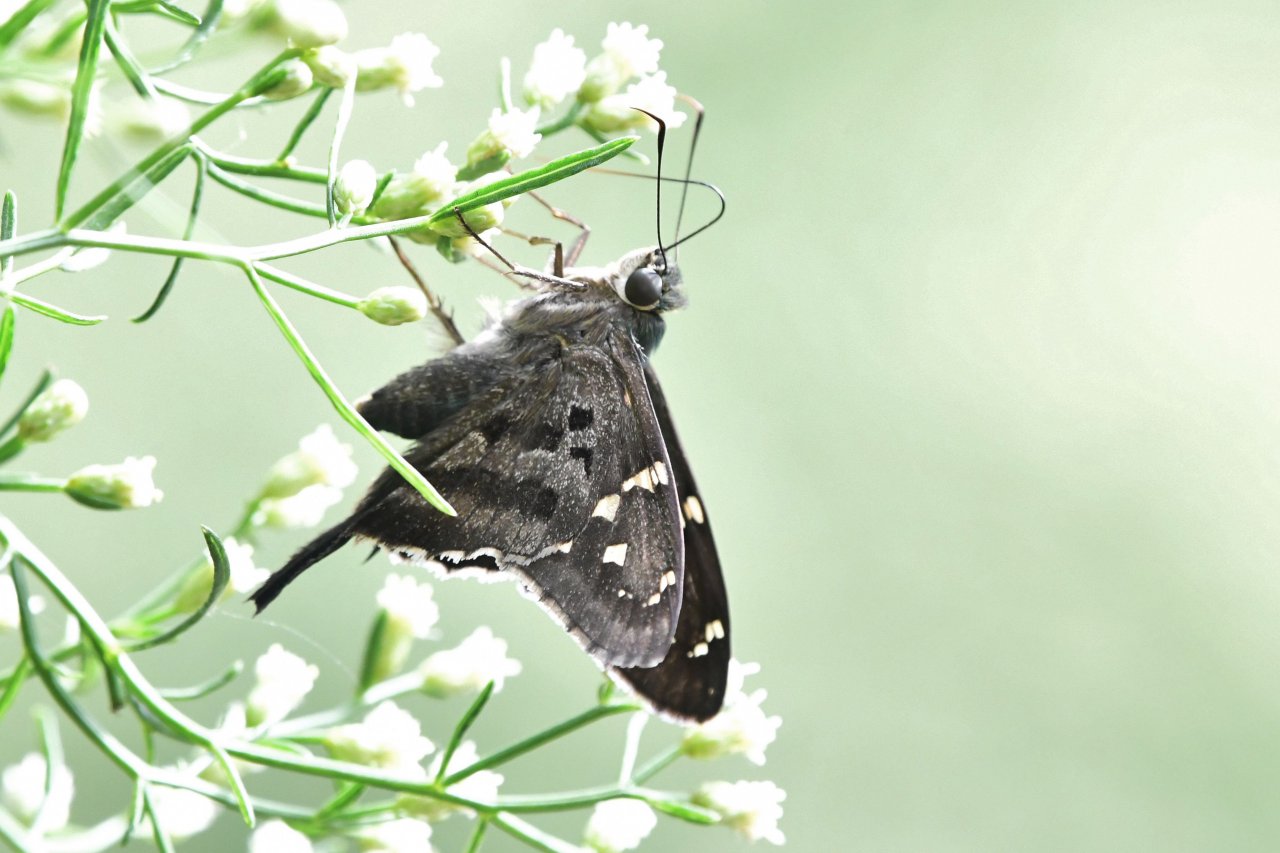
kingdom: Animalia
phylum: Arthropoda
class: Insecta
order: Lepidoptera
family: Hesperiidae
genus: Urbanus
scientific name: Urbanus proteus
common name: Long-tailed Skipper
